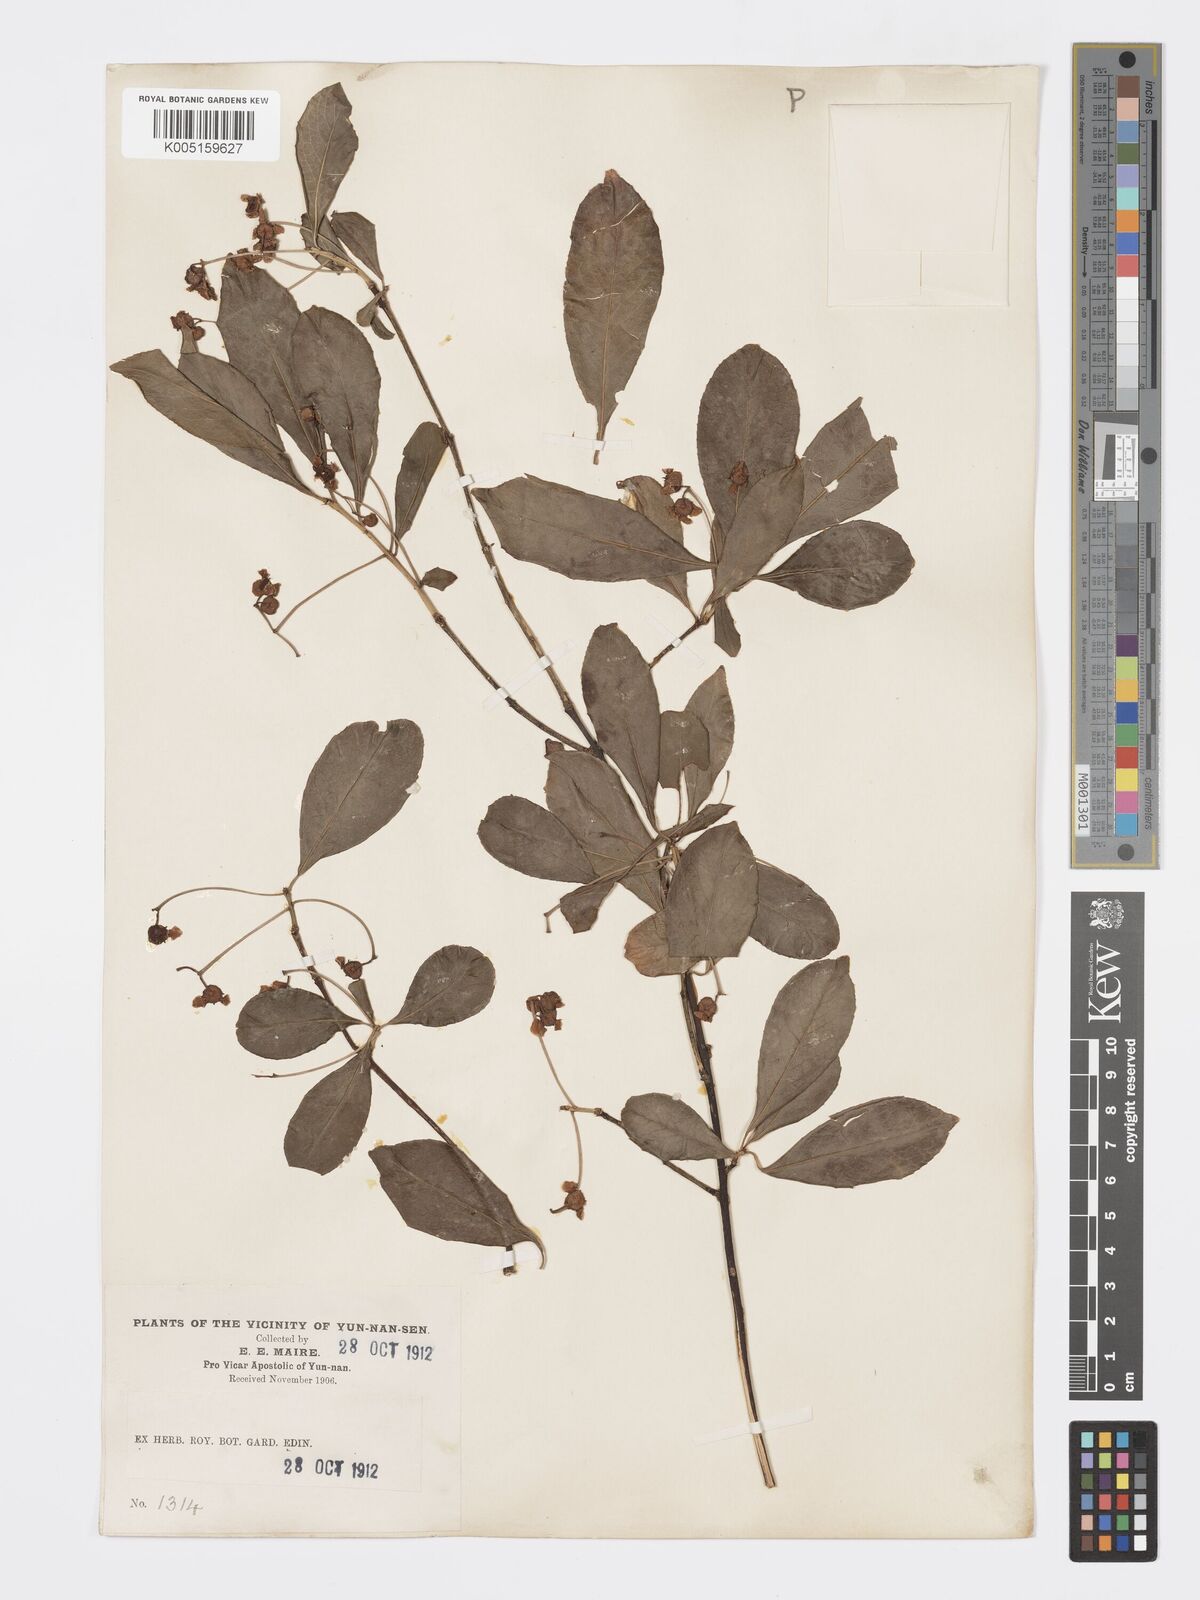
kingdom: Plantae
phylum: Tracheophyta
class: Magnoliopsida
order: Celastrales
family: Celastraceae
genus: Euonymus
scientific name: Euonymus grandiflorus
